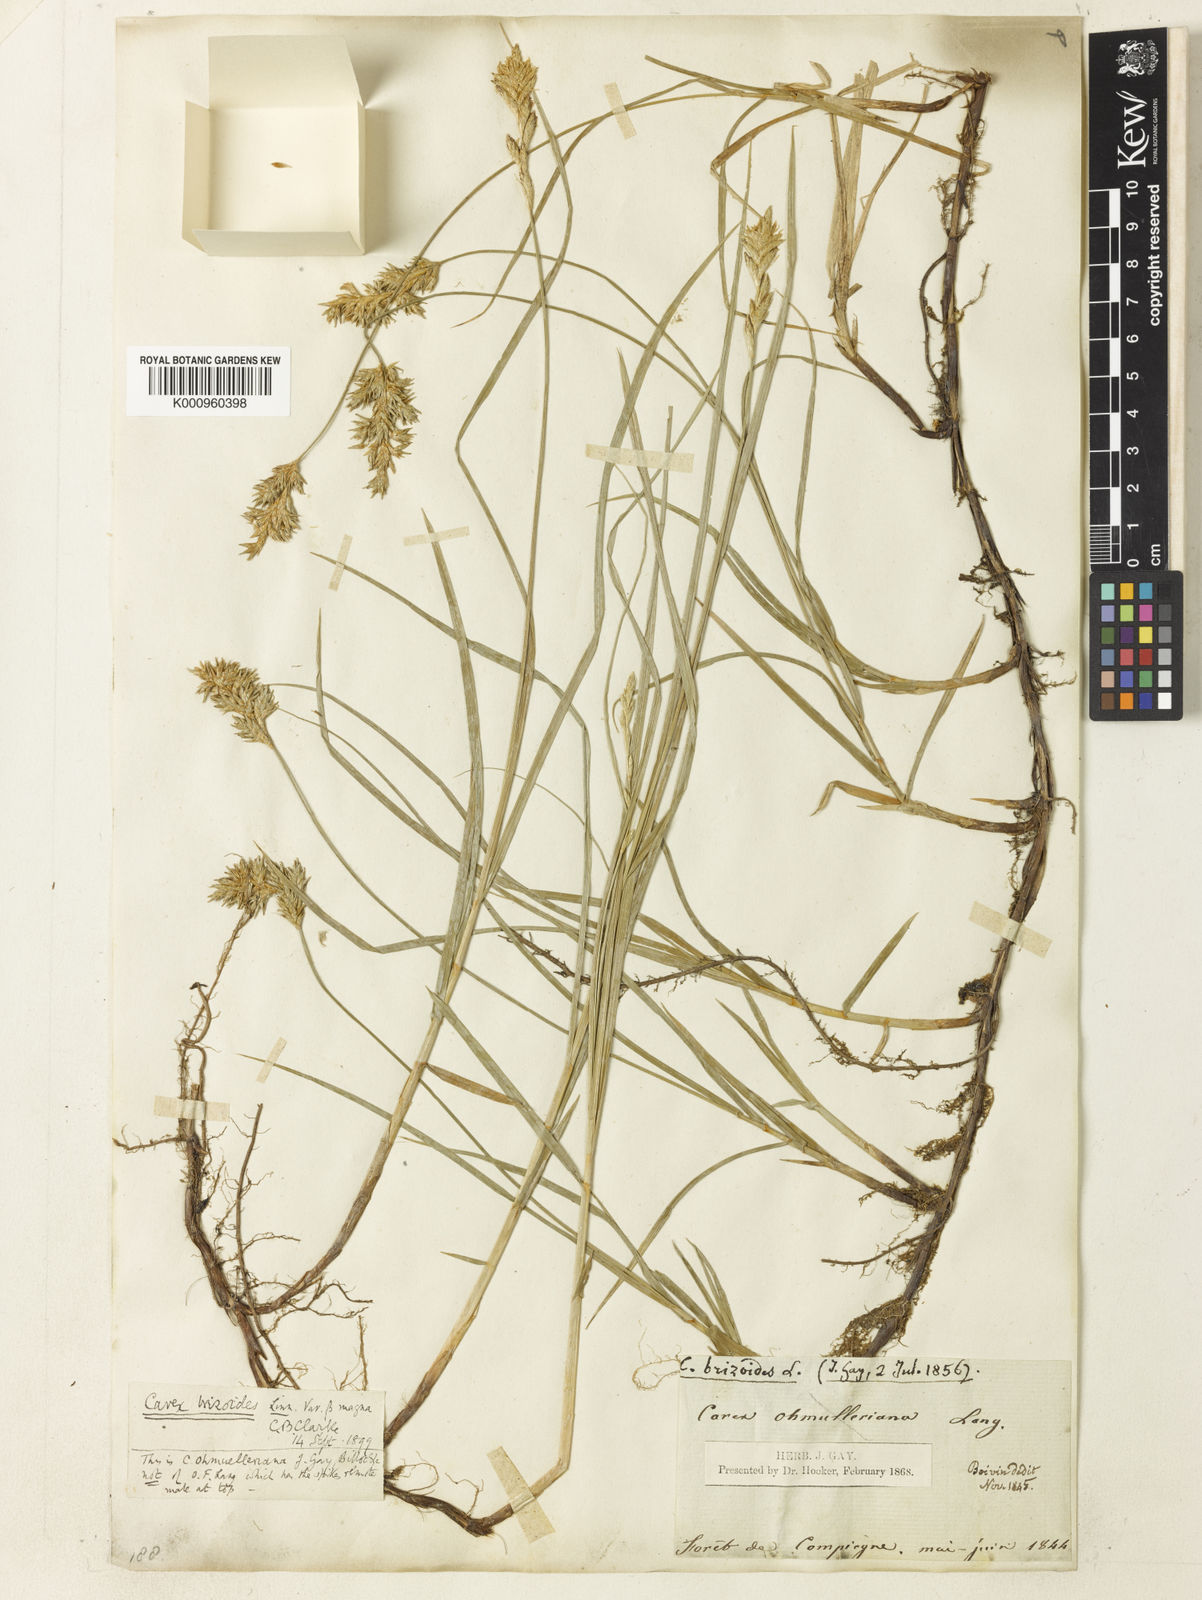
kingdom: Plantae
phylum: Tracheophyta
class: Liliopsida
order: Poales
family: Cyperaceae
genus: Carex
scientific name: Carex
